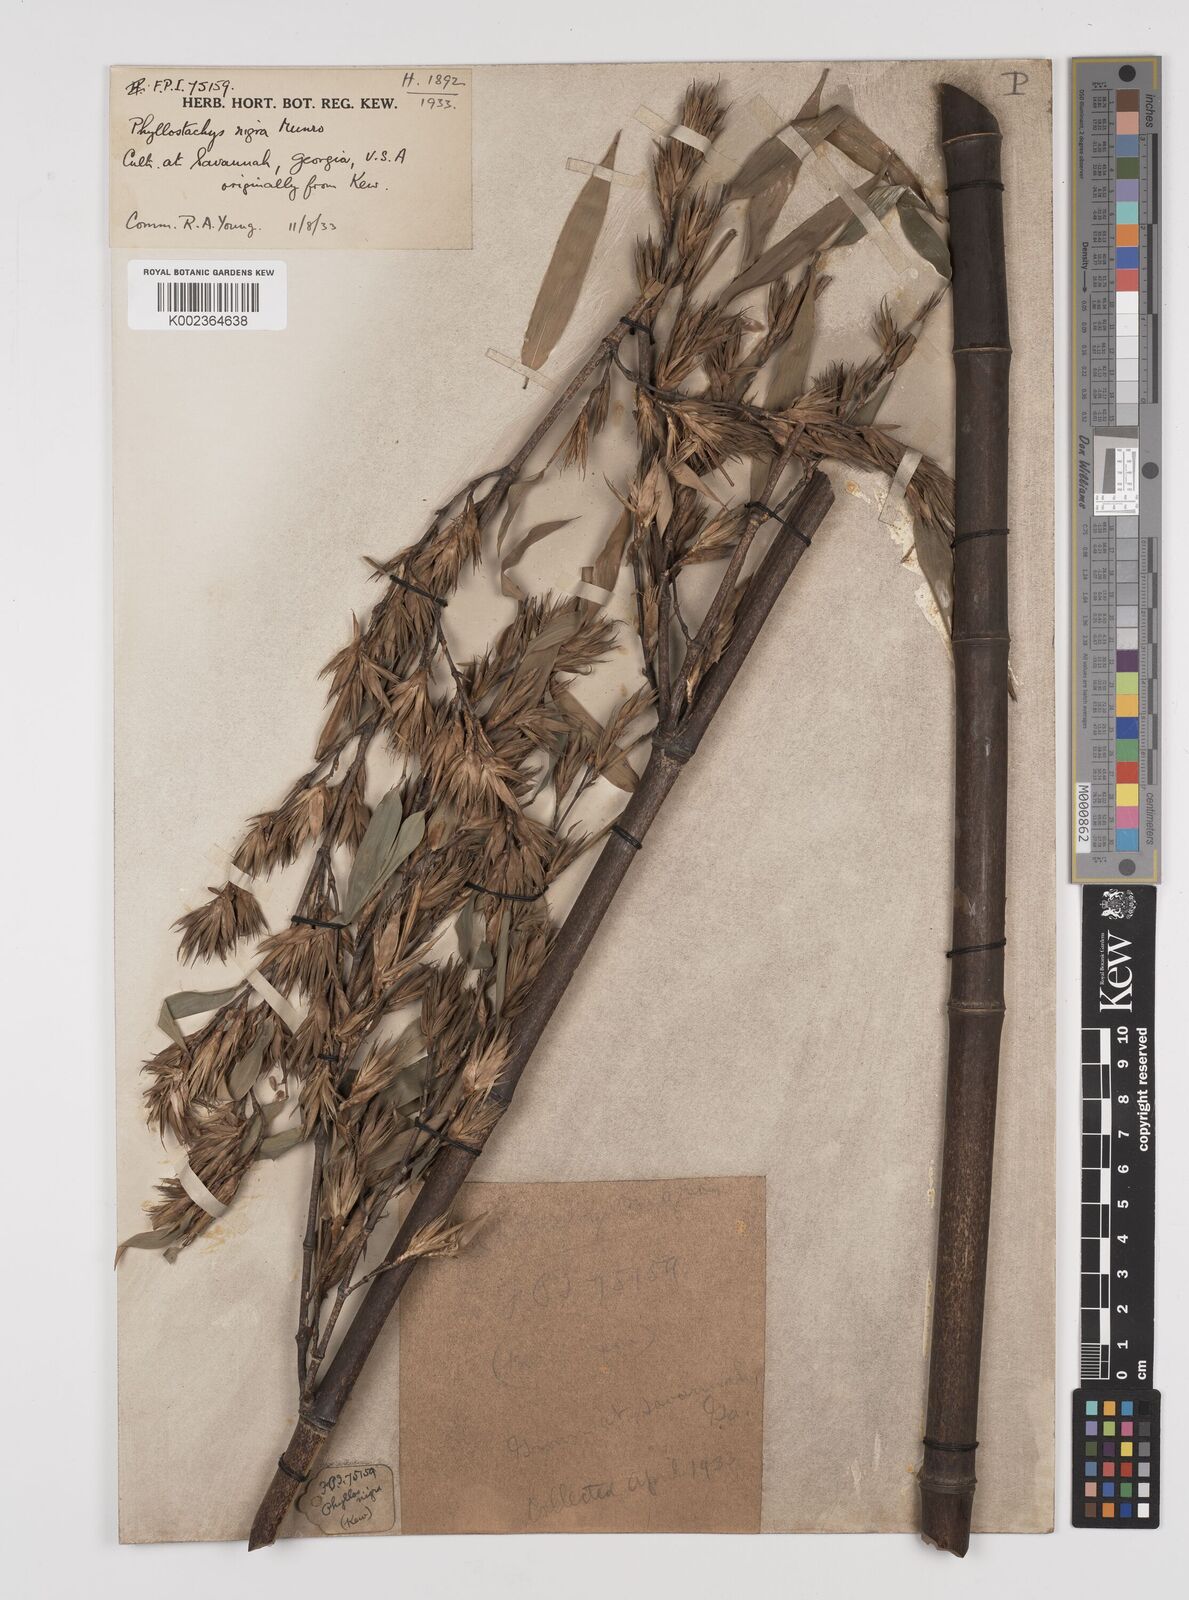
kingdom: Plantae
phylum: Tracheophyta
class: Liliopsida
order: Poales
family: Poaceae
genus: Phyllostachys
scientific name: Phyllostachys nigra
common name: Black bamboo
